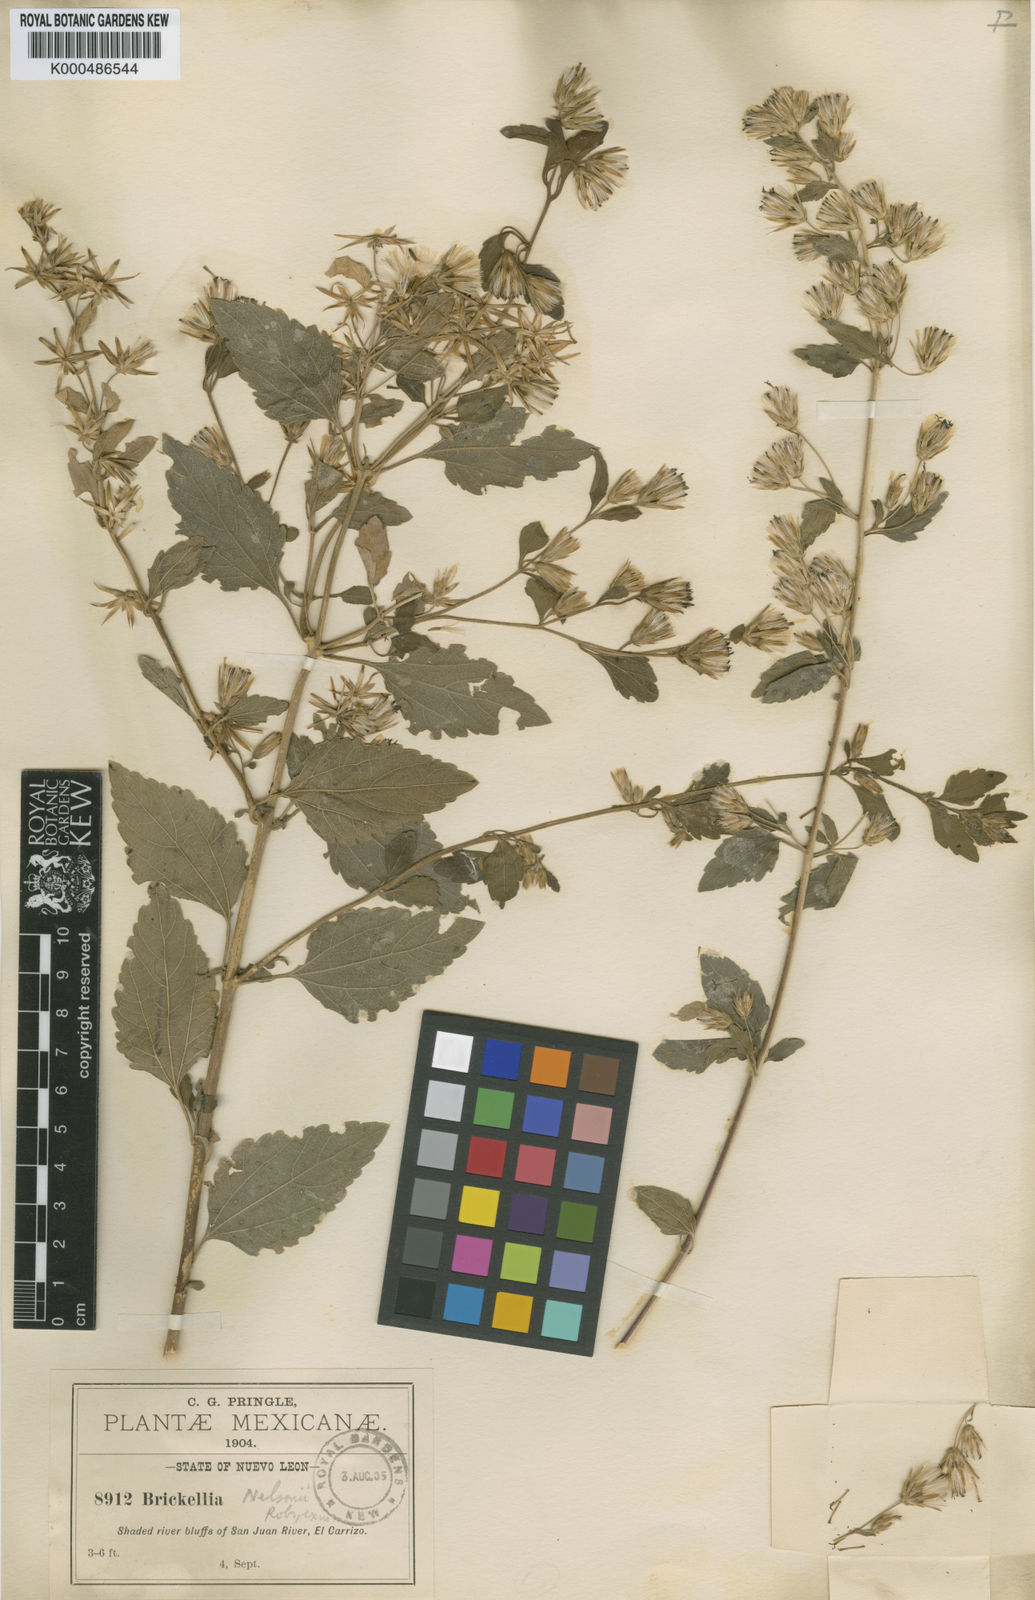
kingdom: Plantae
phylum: Tracheophyta
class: Magnoliopsida
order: Asterales
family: Asteraceae
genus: Brickellia
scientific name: Brickellia lemmonii
